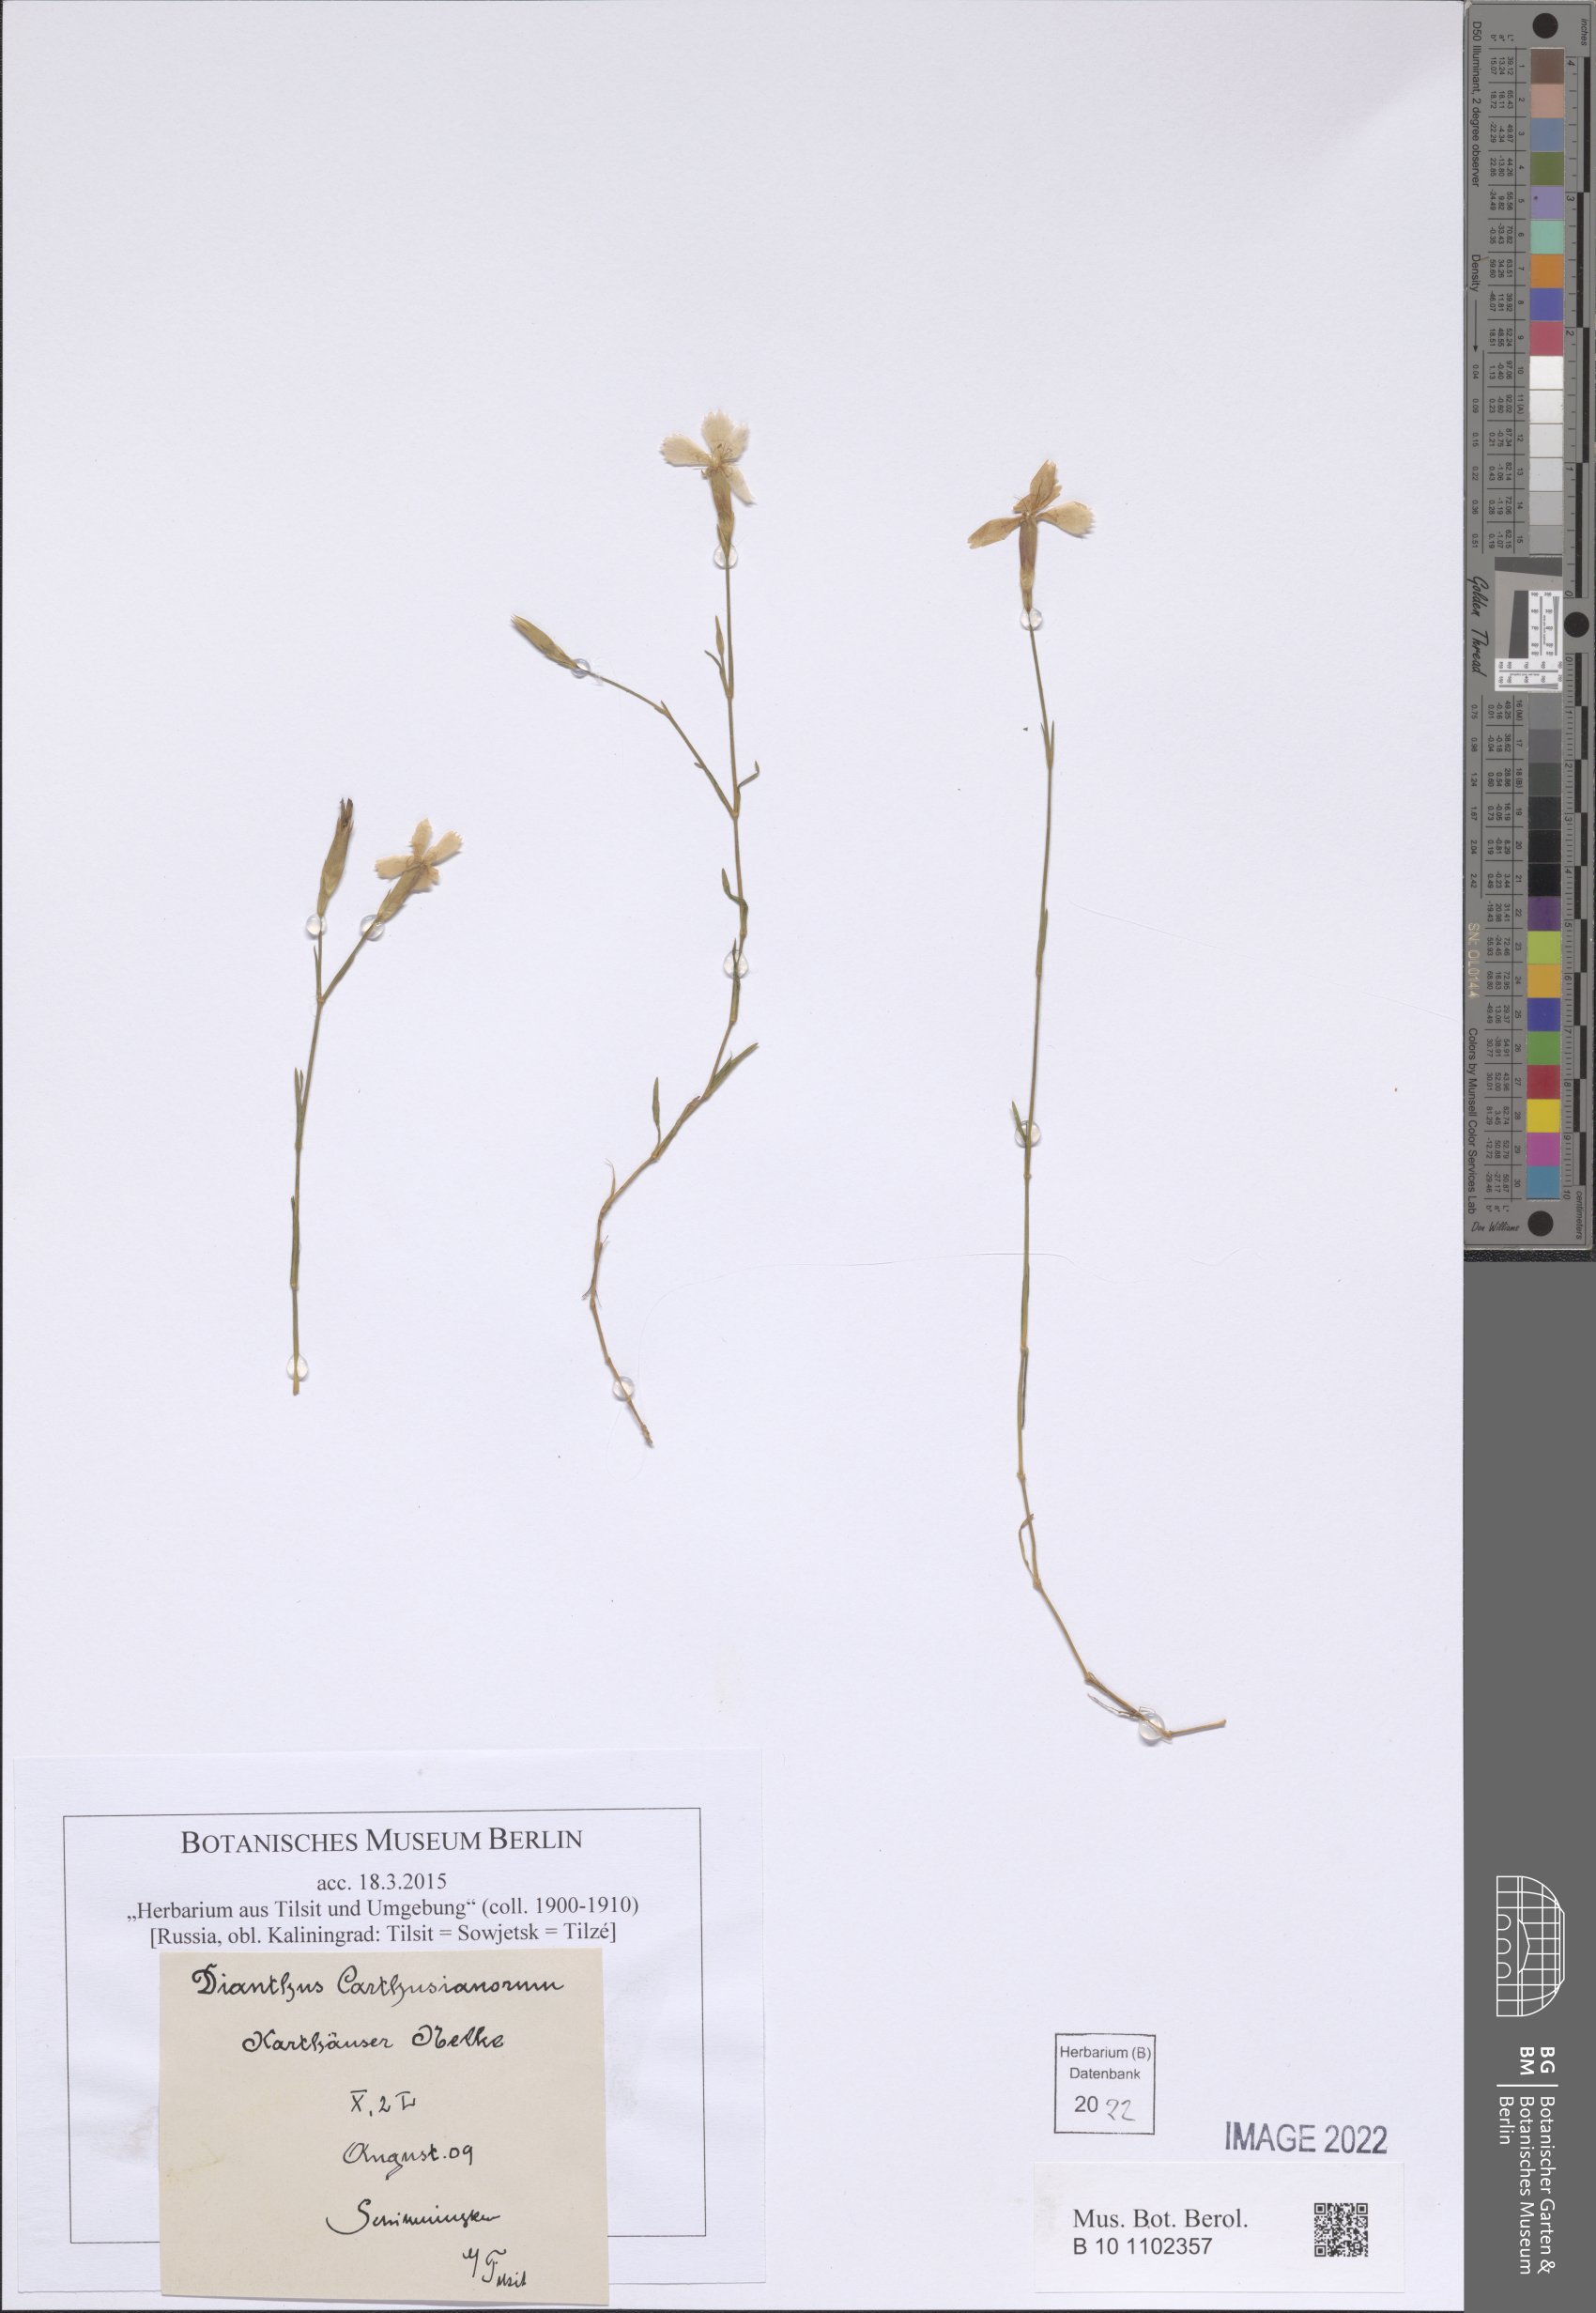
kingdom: Plantae
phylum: Tracheophyta
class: Magnoliopsida
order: Caryophyllales
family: Caryophyllaceae
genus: Dianthus
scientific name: Dianthus carthusianorum
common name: Carthusian pink
